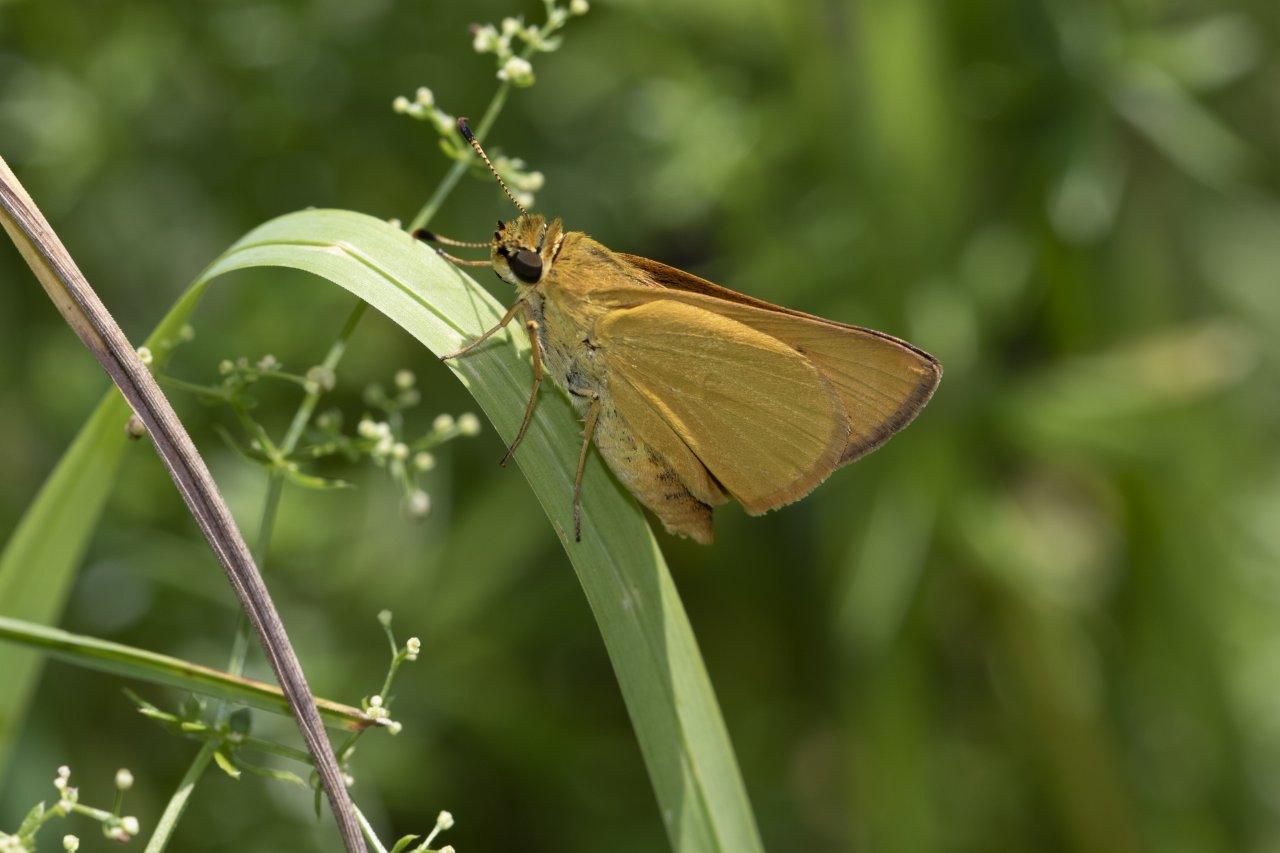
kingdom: Animalia
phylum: Arthropoda
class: Insecta
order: Lepidoptera
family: Hesperiidae
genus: Atrytone
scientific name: Atrytone delaware
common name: Delaware Skipper
